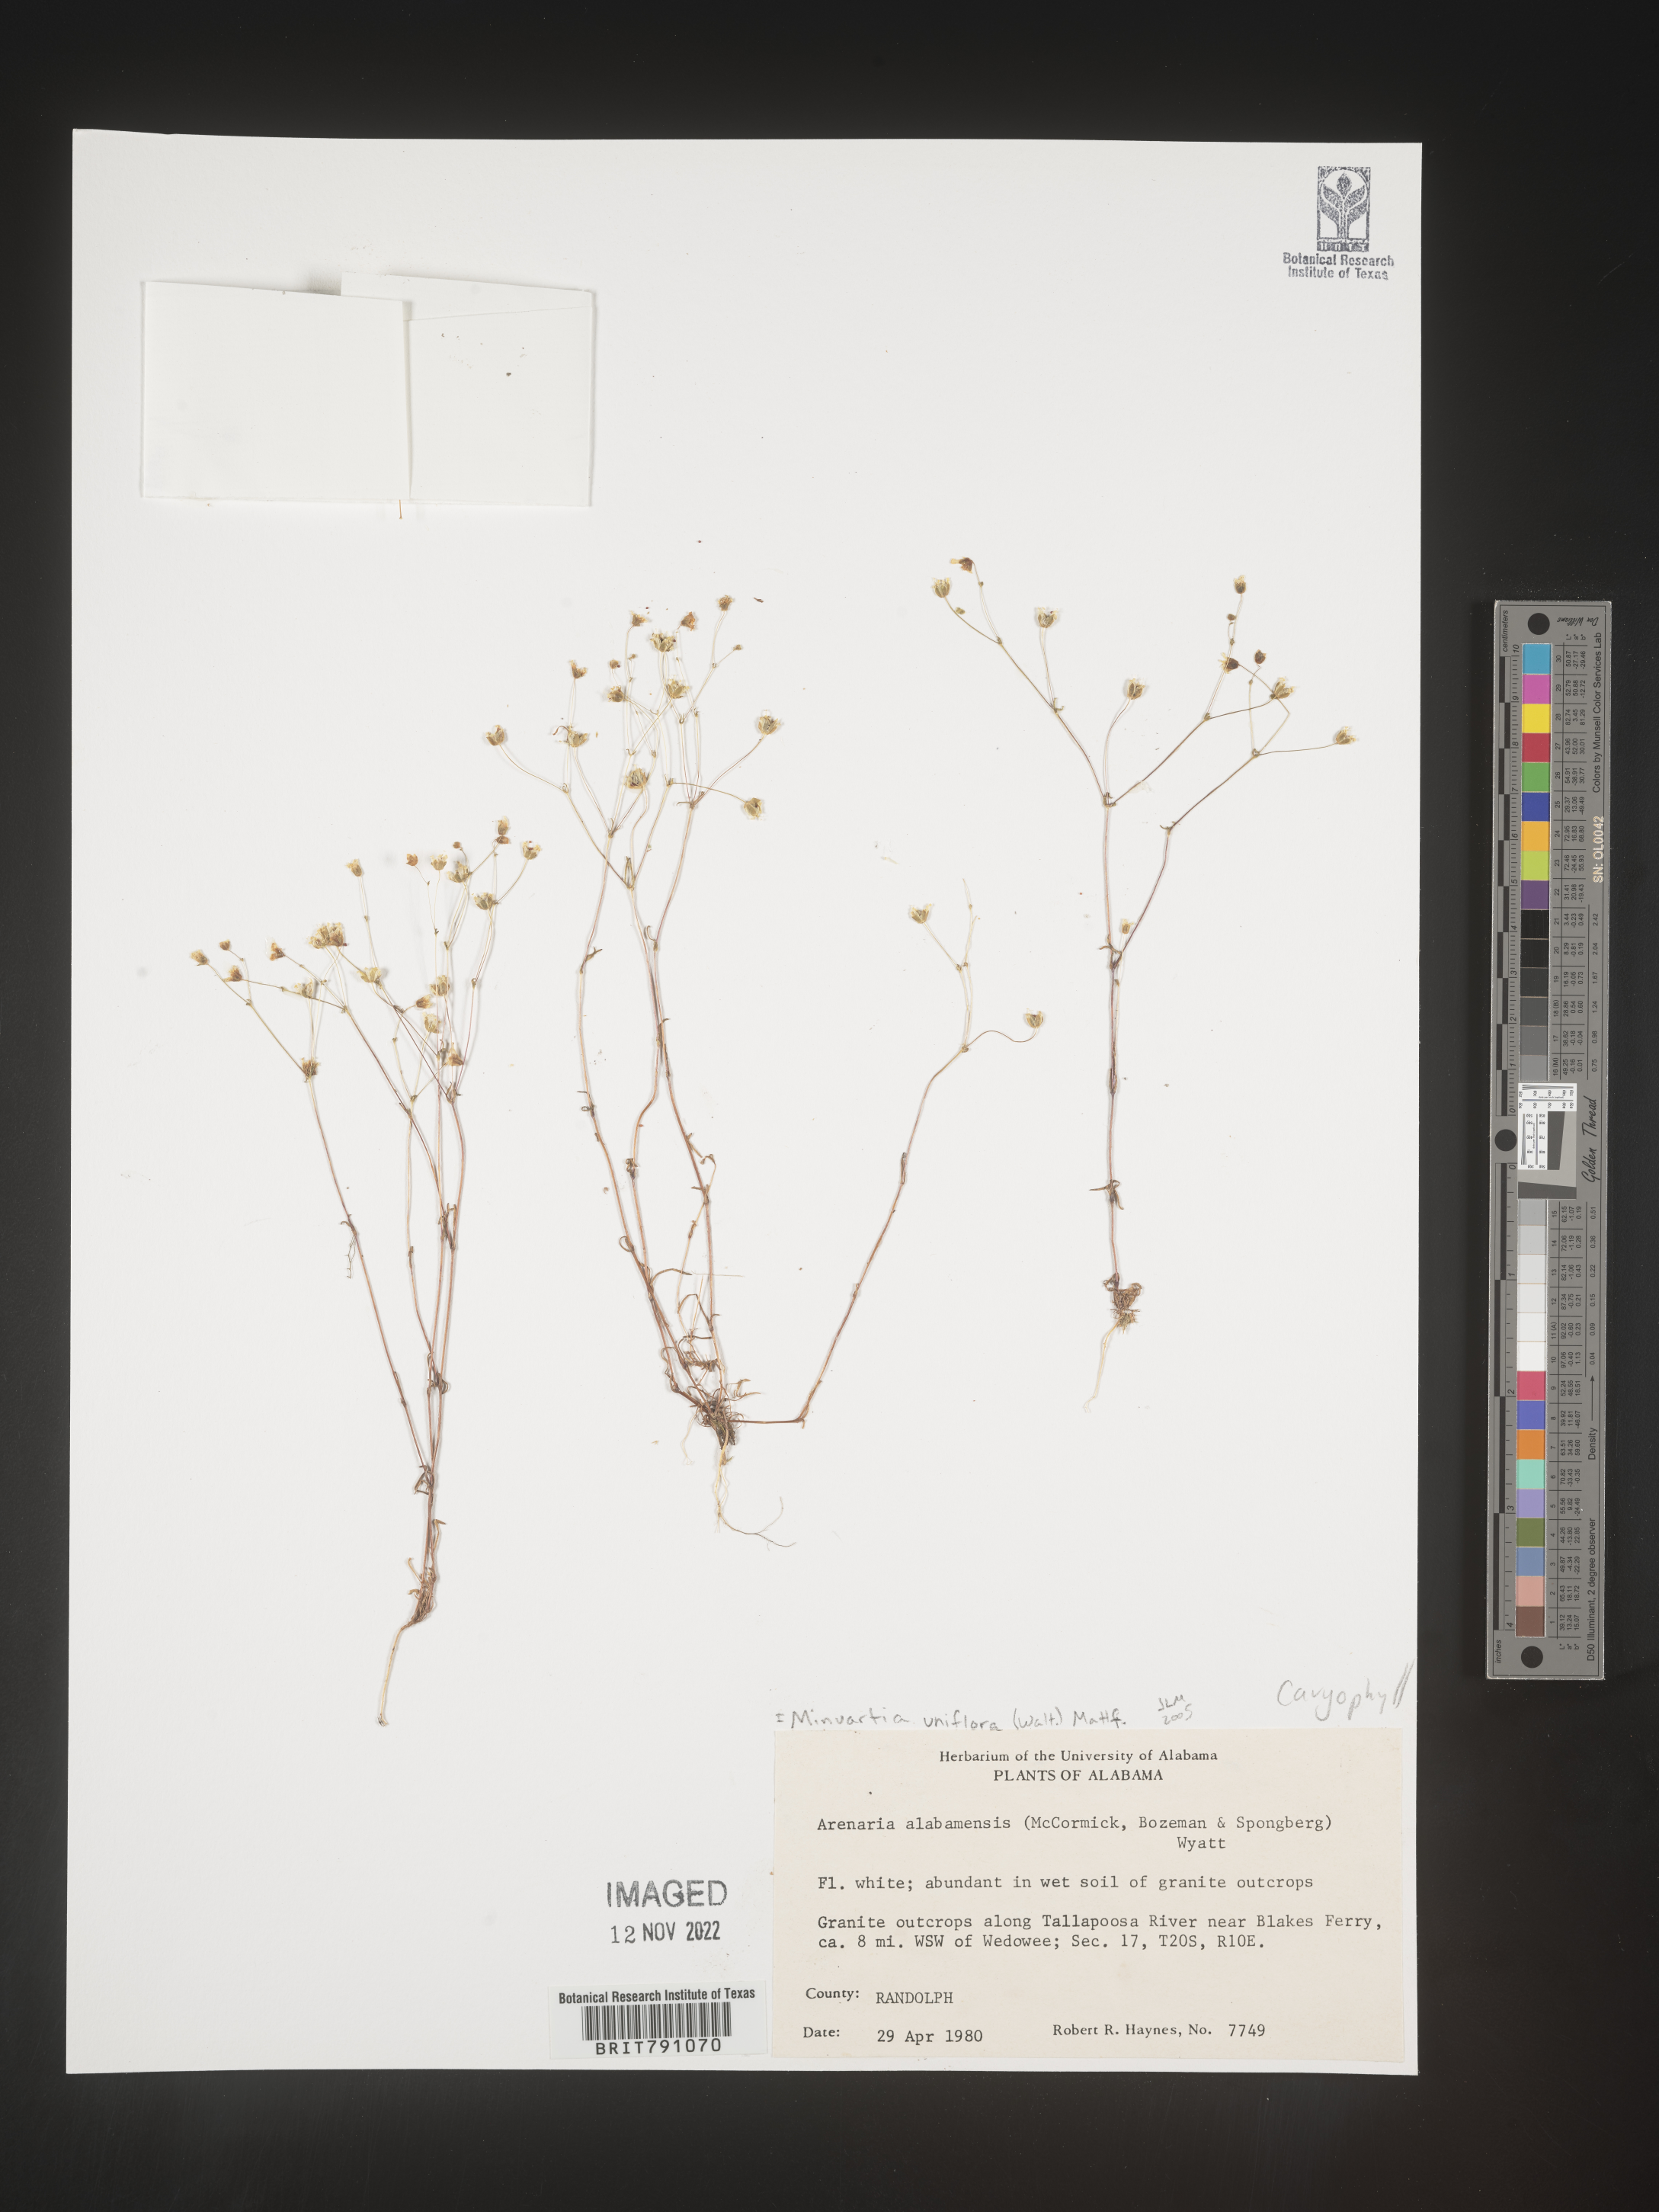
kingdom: Plantae
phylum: Tracheophyta
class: Magnoliopsida
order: Caryophyllales
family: Caryophyllaceae
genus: Geocarpon
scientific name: Geocarpon uniflorum
